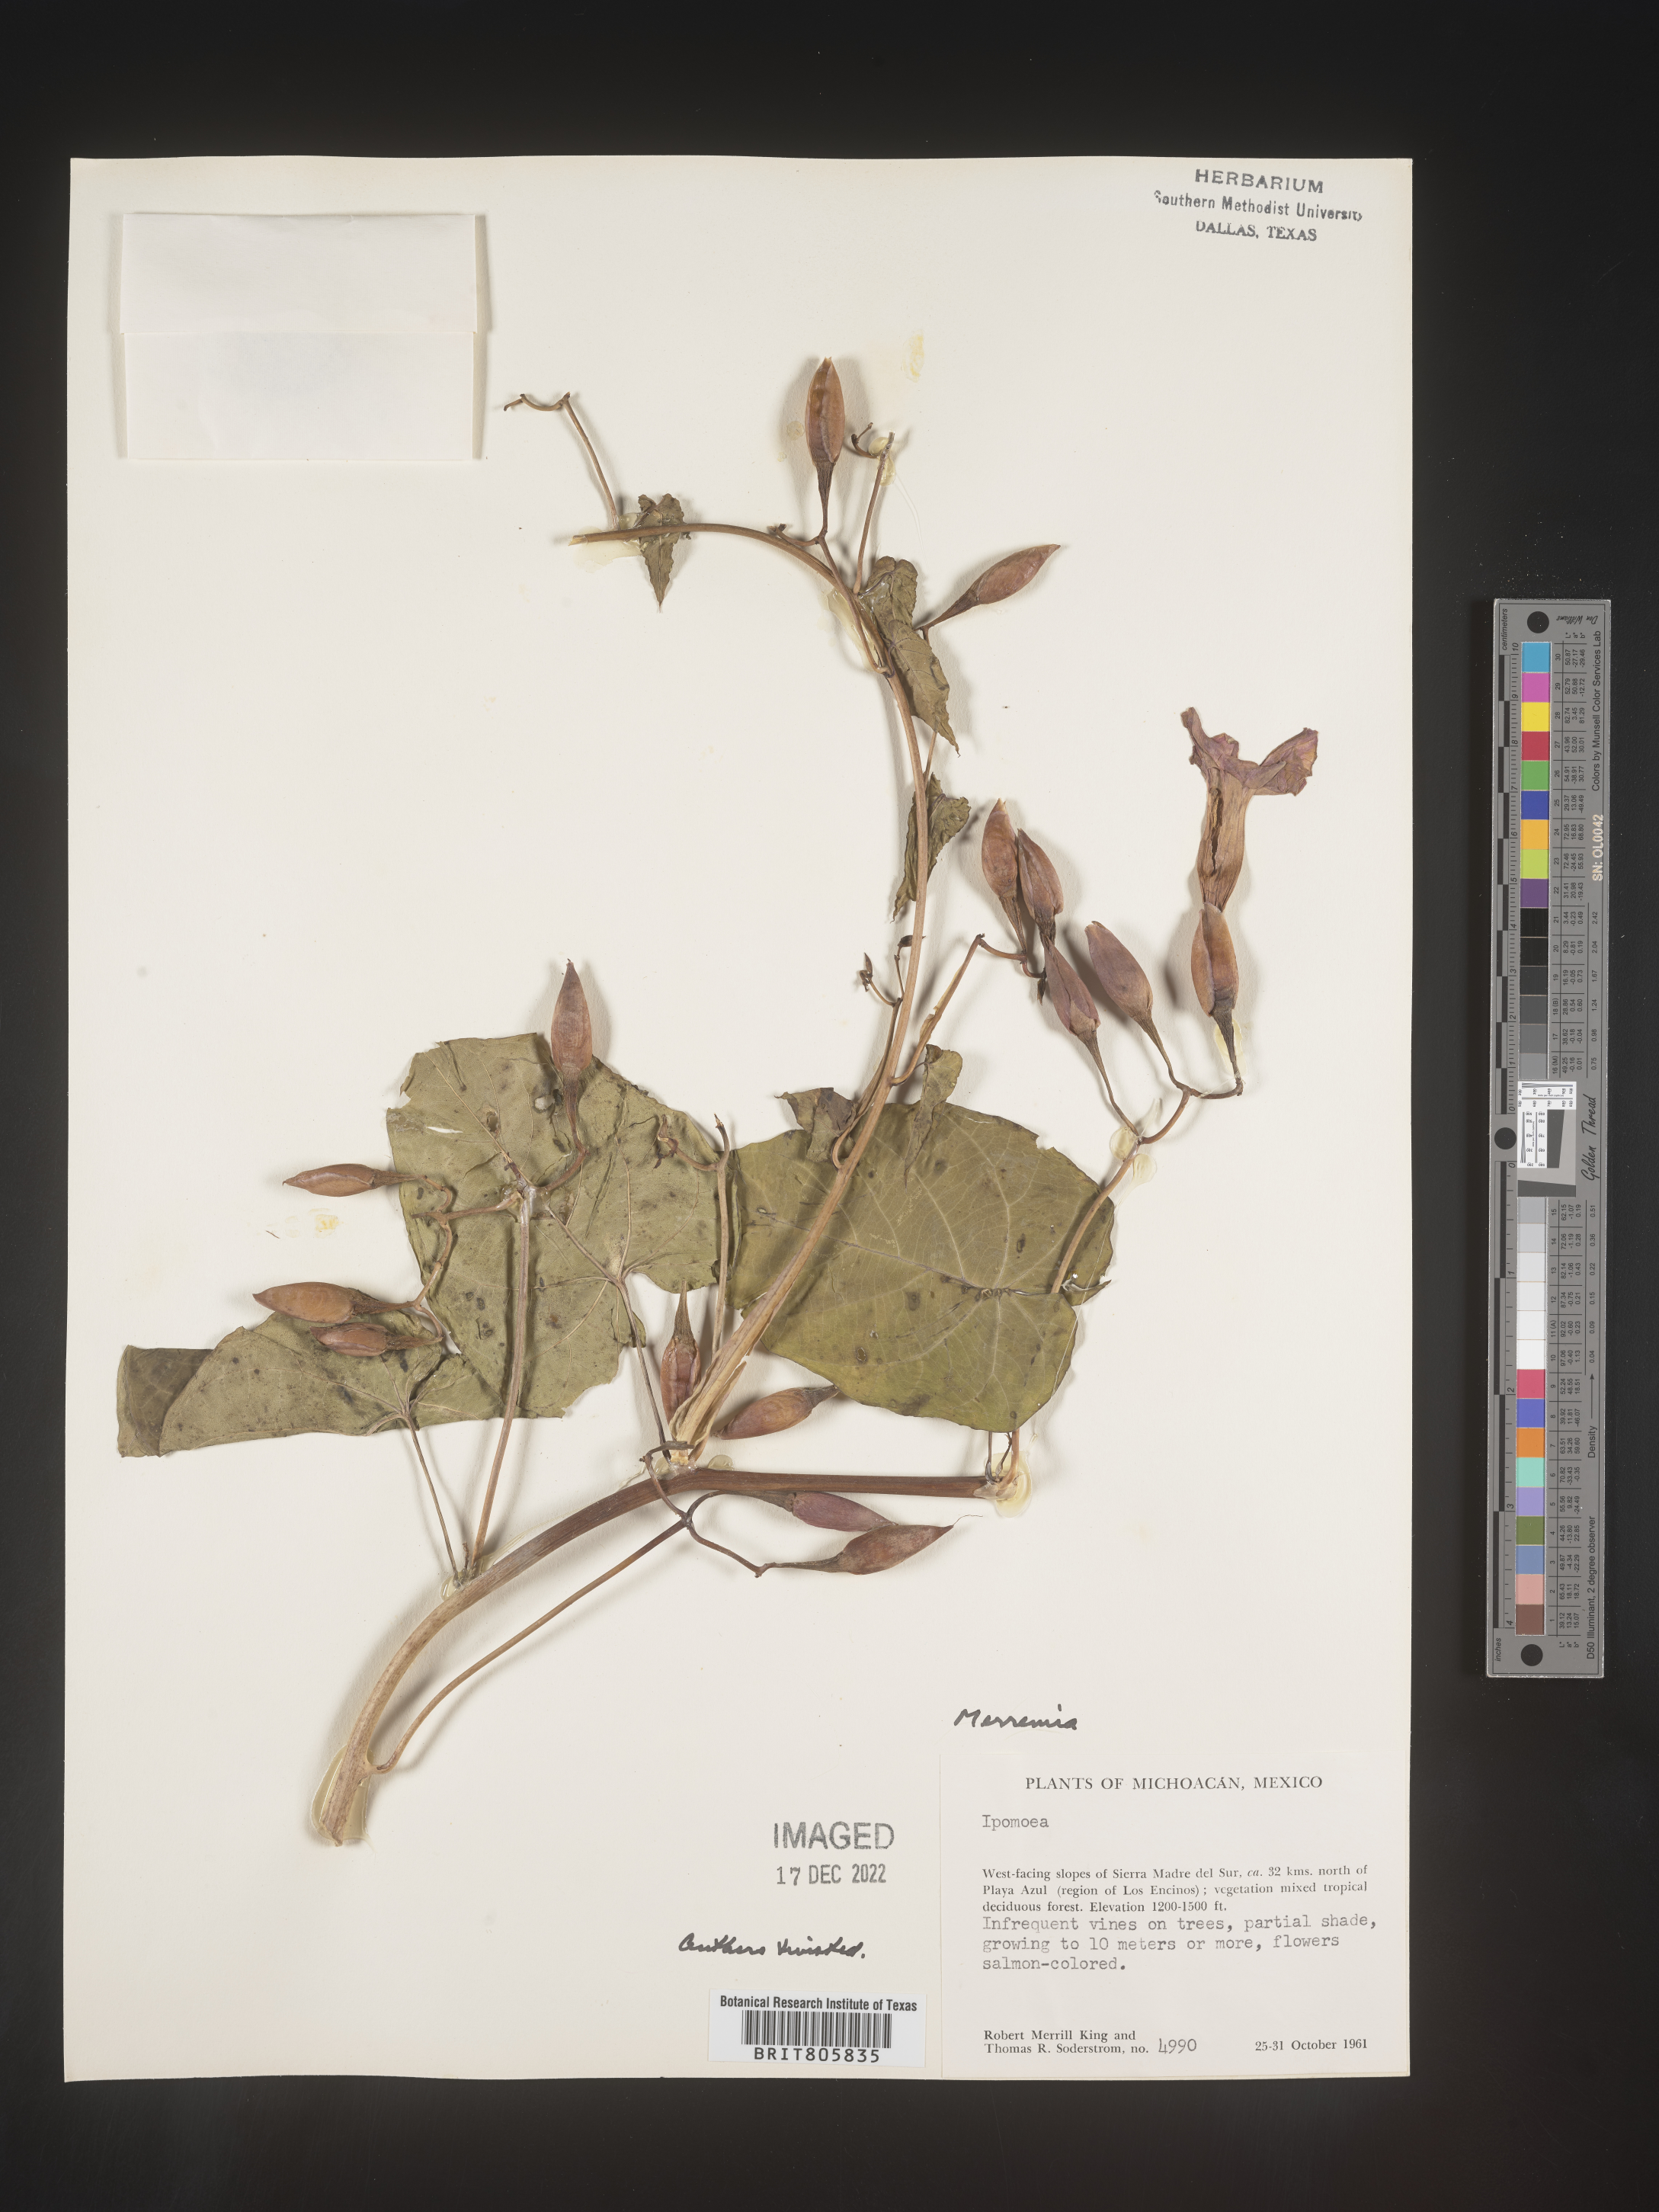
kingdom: Plantae
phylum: Tracheophyta
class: Magnoliopsida
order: Solanales
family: Convolvulaceae
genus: Merremia
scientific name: Merremia
